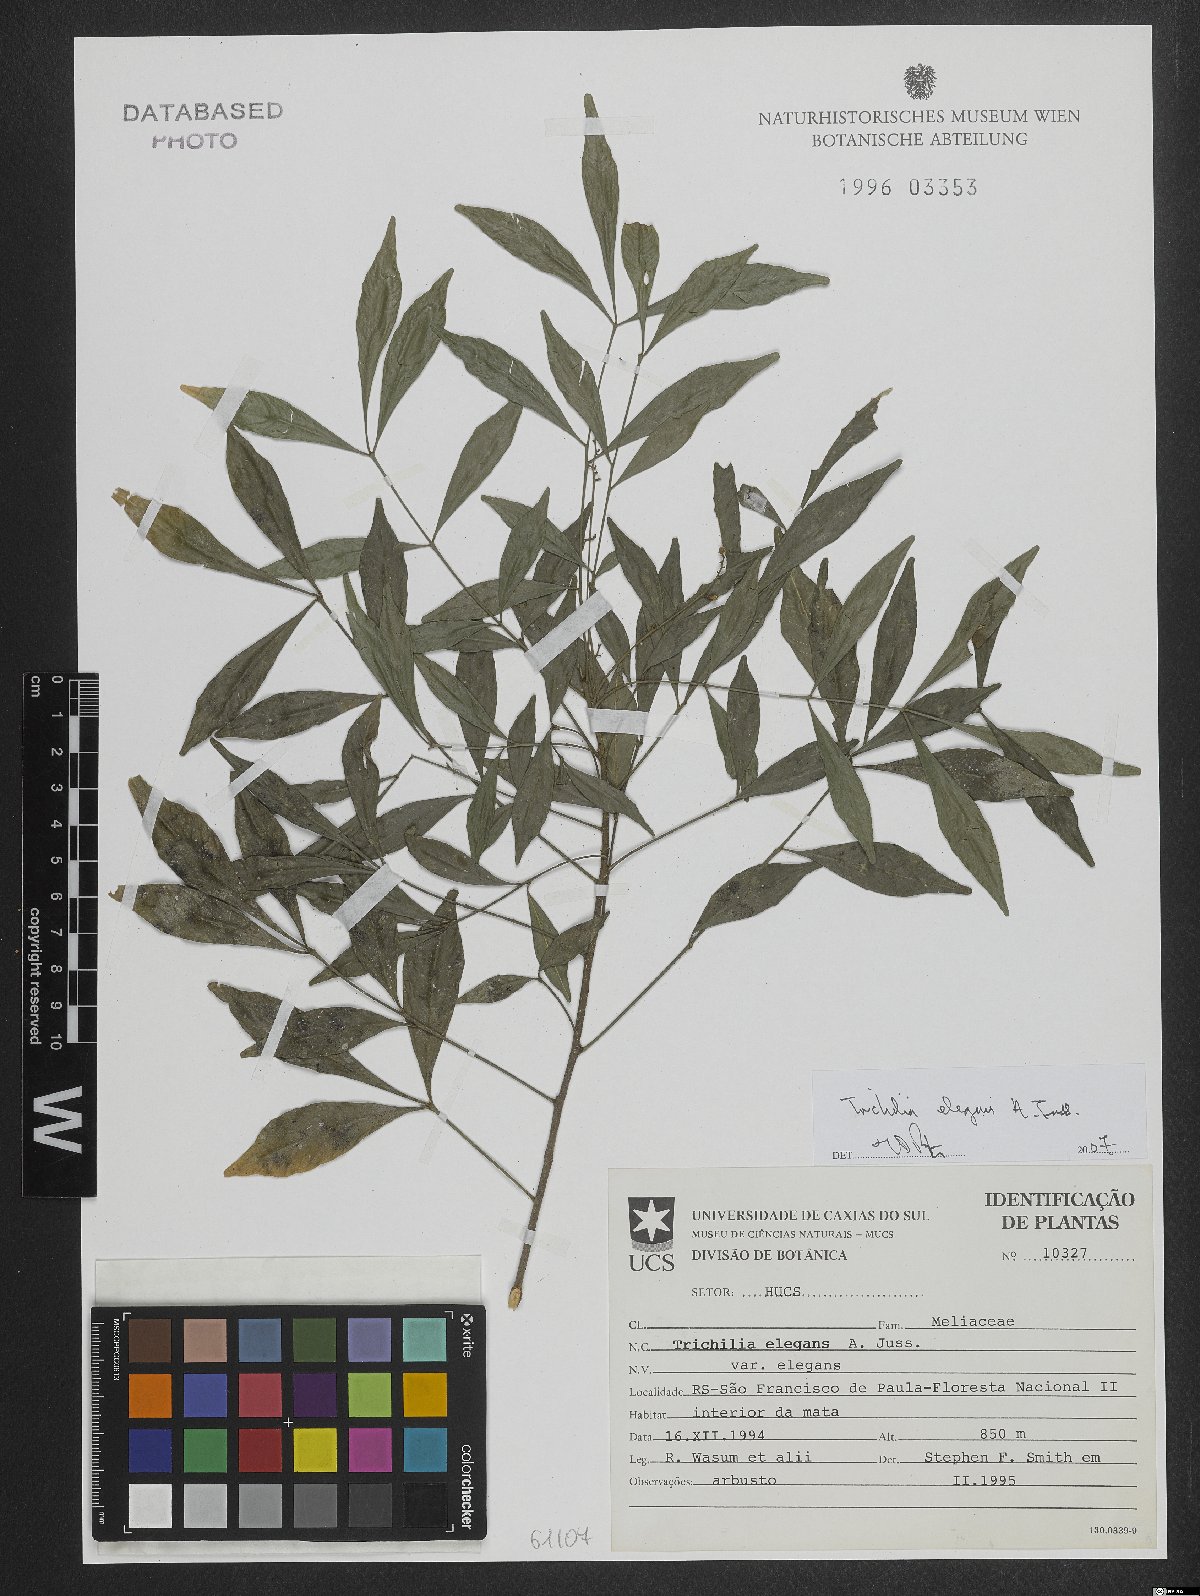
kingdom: Plantae
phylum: Tracheophyta
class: Magnoliopsida
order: Sapindales
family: Meliaceae
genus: Trichilia
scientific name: Trichilia elegans
